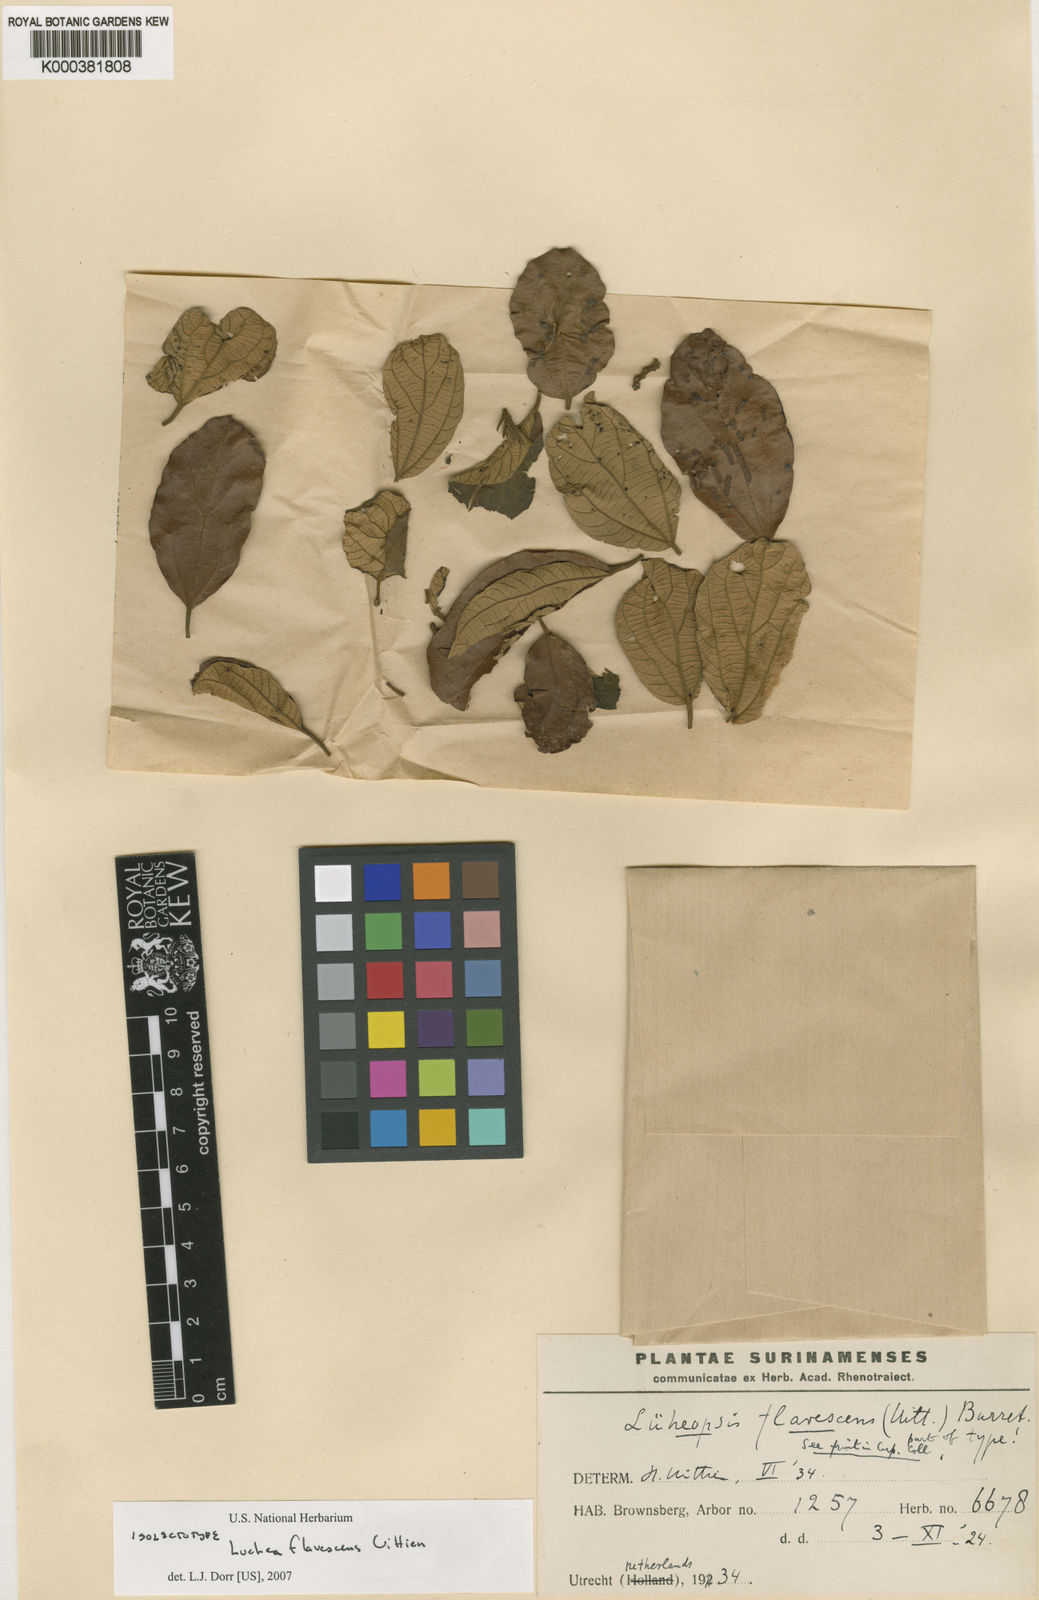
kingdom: Plantae
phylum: Tracheophyta
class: Magnoliopsida
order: Malvales
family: Malvaceae
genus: Lueheopsis
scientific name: Lueheopsis rosea
